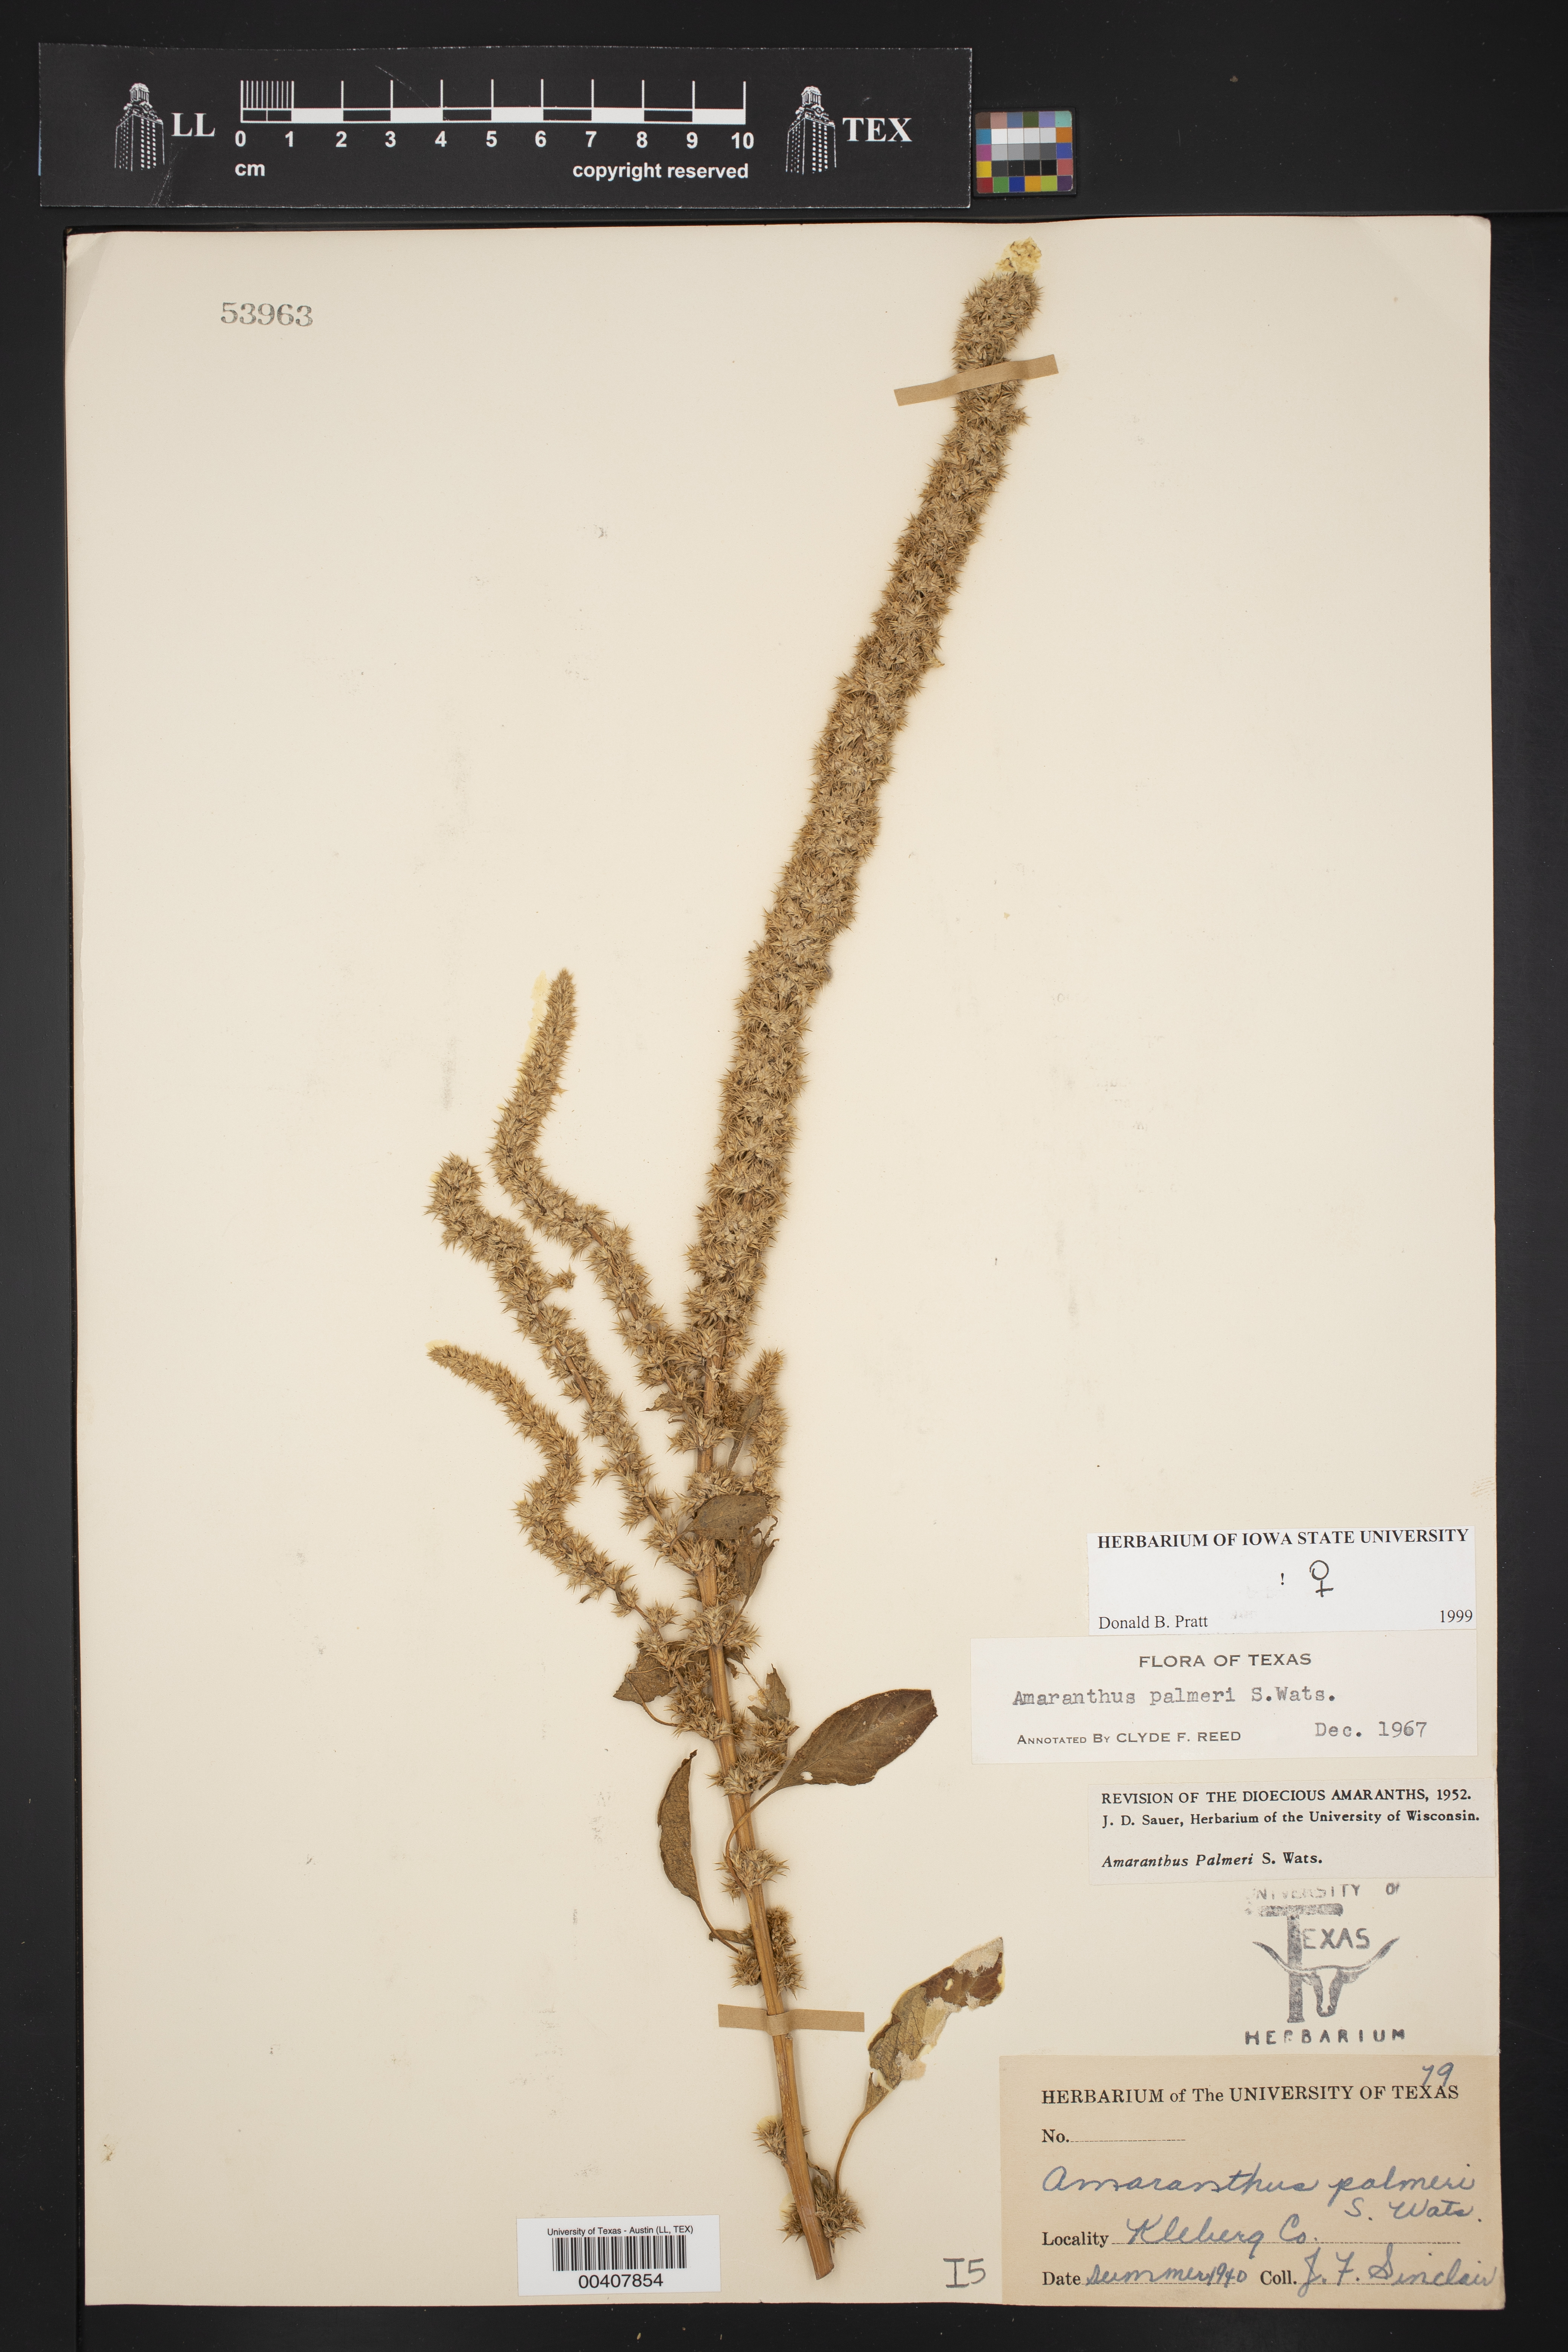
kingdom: Plantae
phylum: Tracheophyta
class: Magnoliopsida
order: Caryophyllales
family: Amaranthaceae
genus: Amaranthus
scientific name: Amaranthus palmeri
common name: Dioecious amaranth
